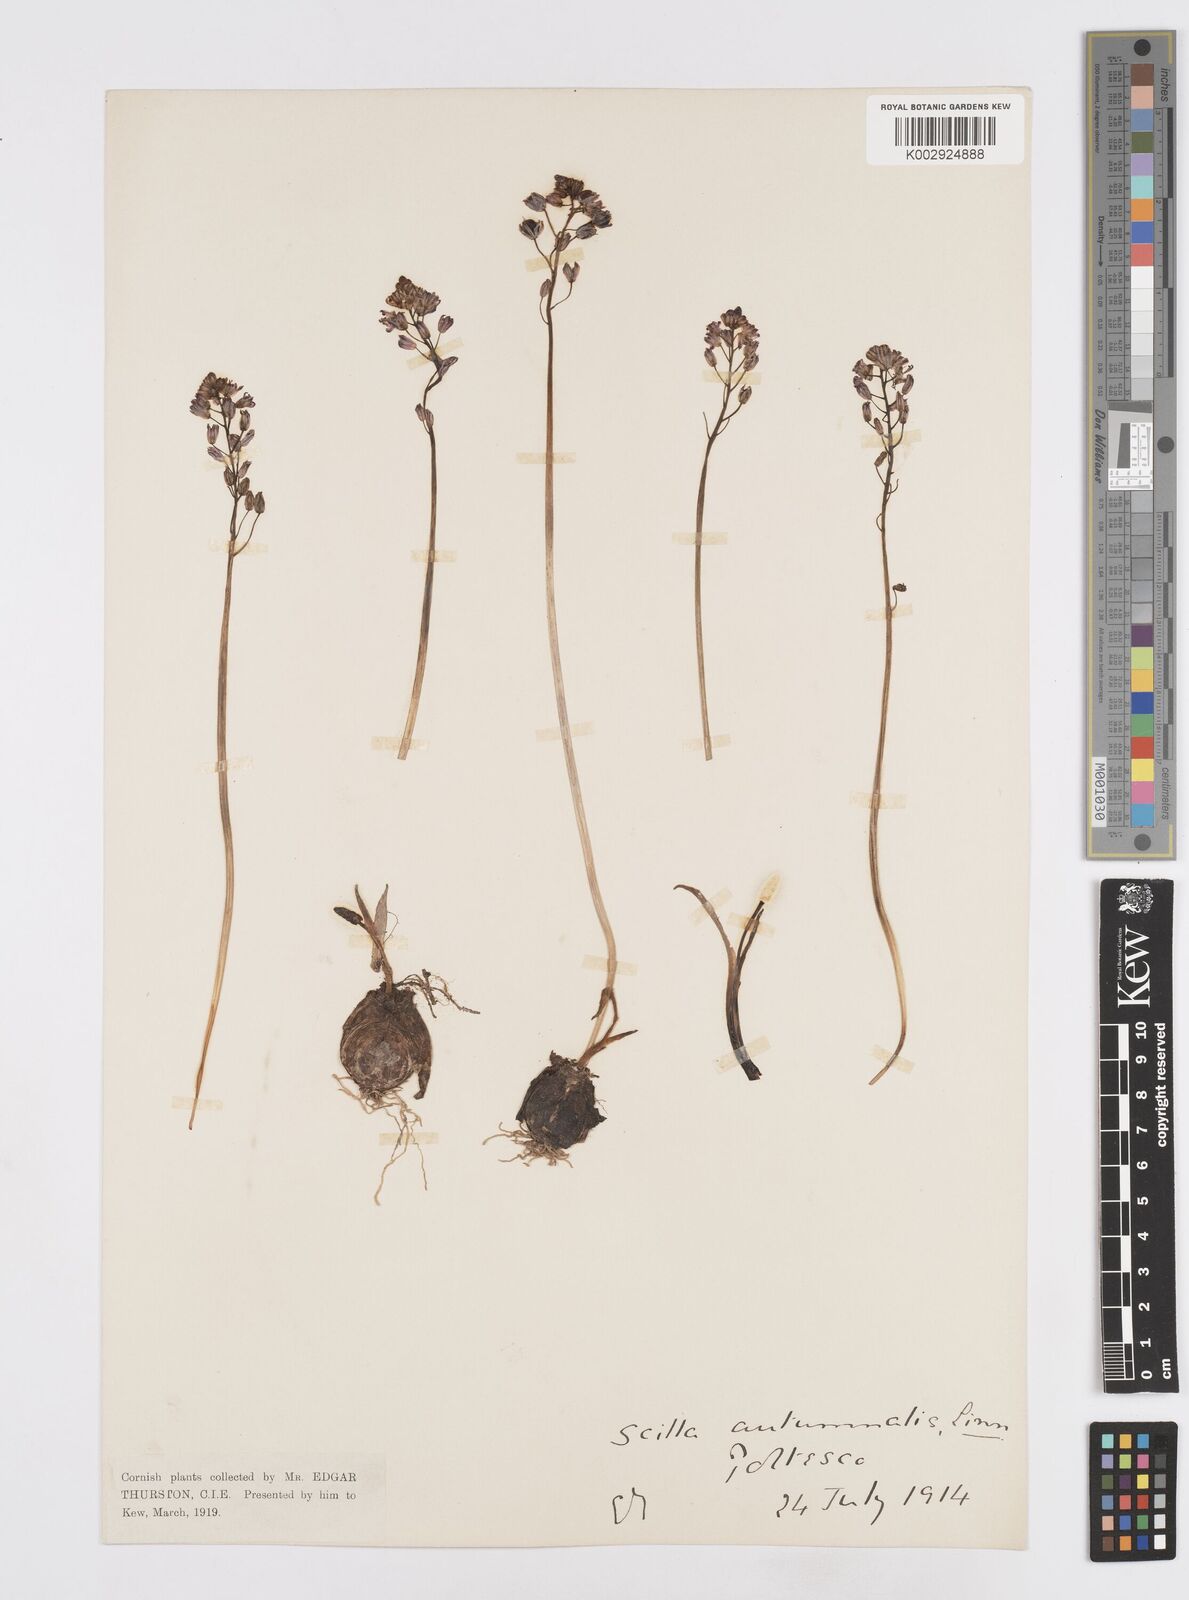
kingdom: Plantae
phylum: Tracheophyta
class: Liliopsida
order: Asparagales
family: Asparagaceae
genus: Prospero
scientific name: Prospero autumnale
